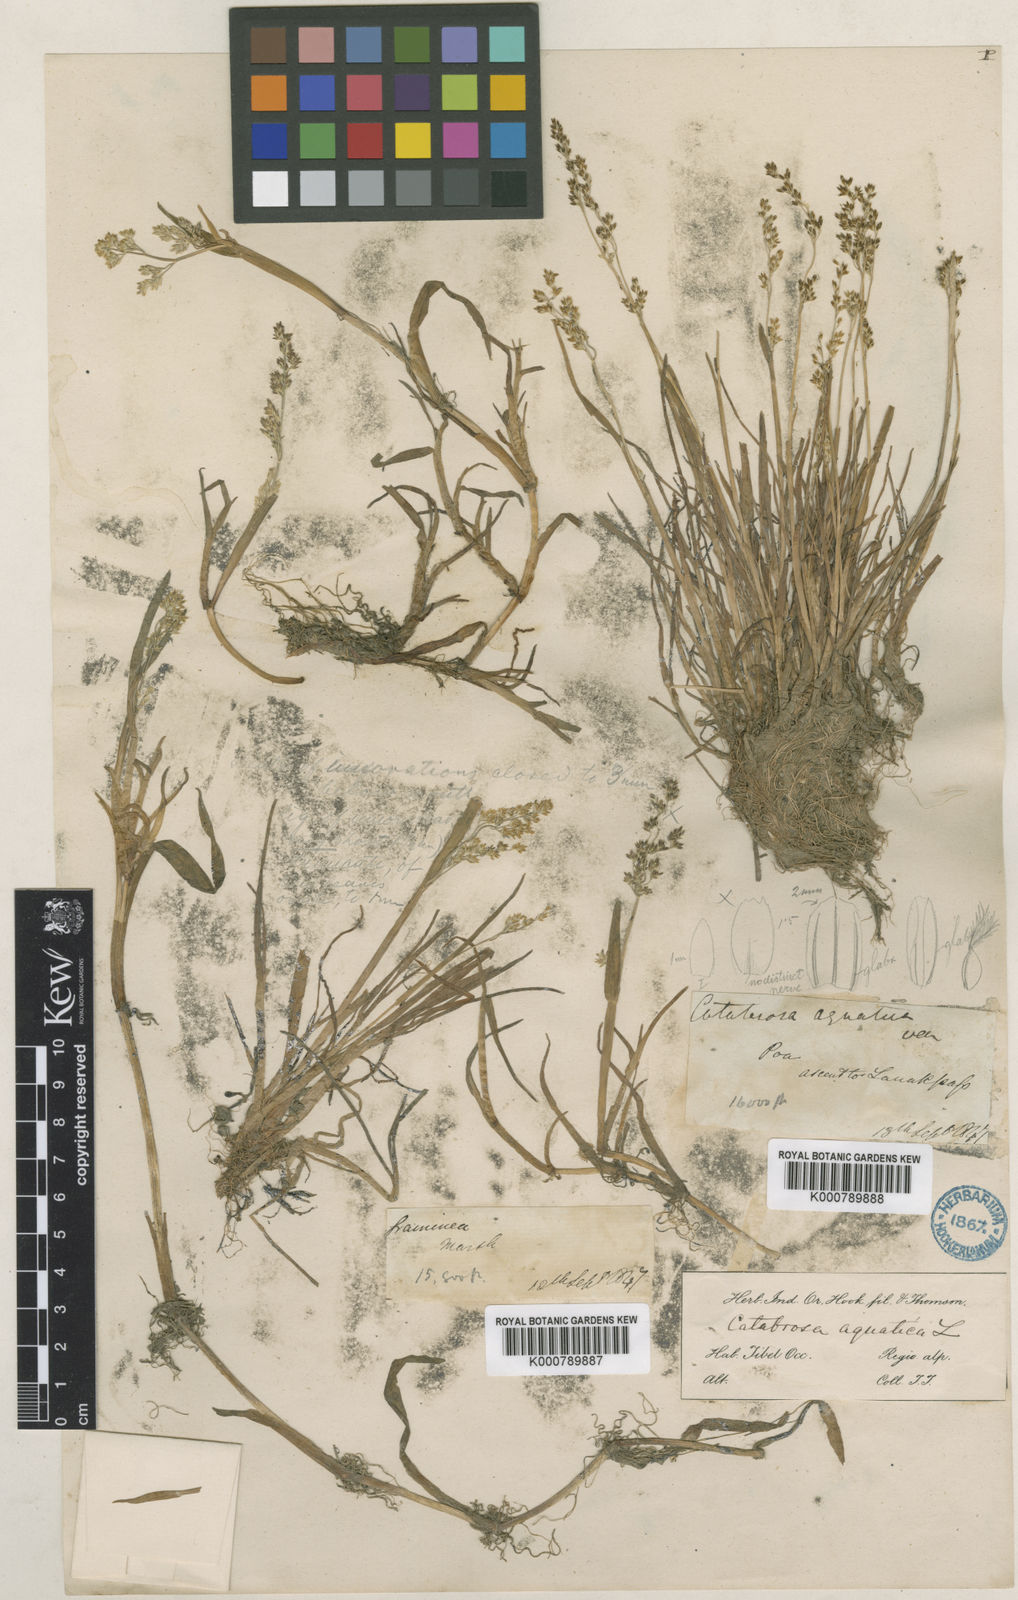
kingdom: Plantae
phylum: Tracheophyta
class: Liliopsida
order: Poales
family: Poaceae
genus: Catabrosa
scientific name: Catabrosa aquatica
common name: Whorl-grass
